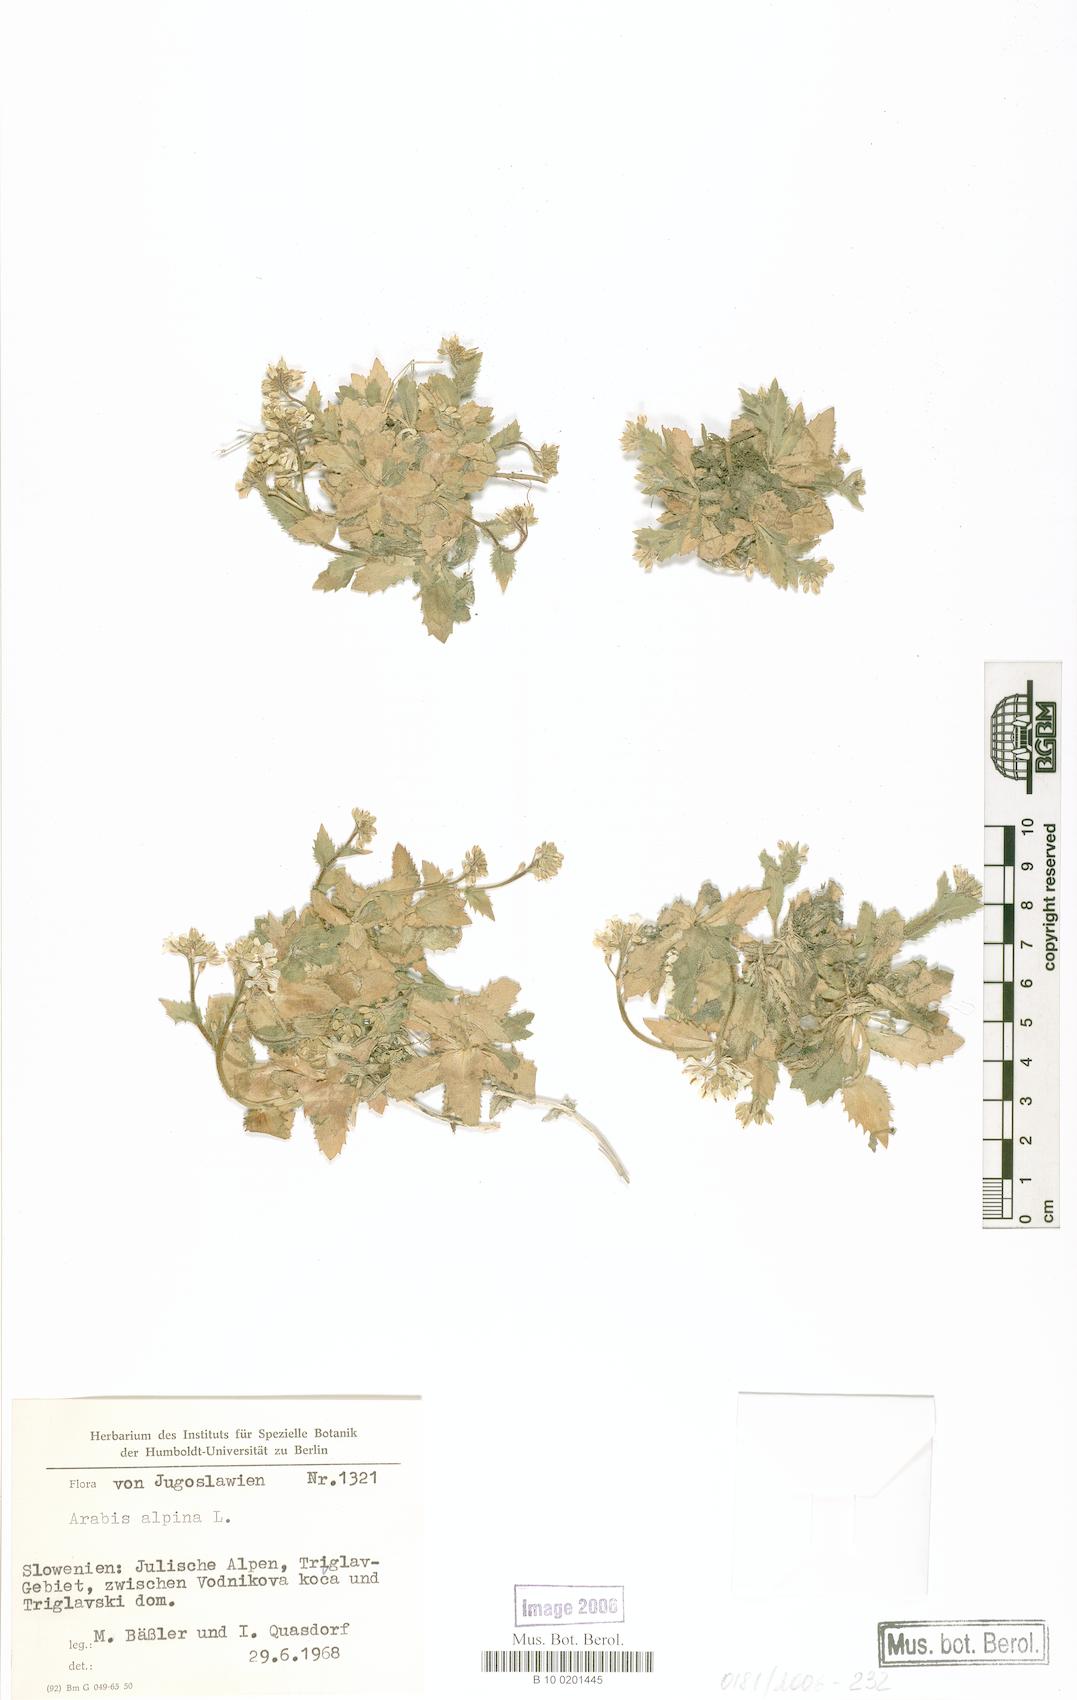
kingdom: Plantae
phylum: Tracheophyta
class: Magnoliopsida
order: Brassicales
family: Brassicaceae
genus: Arabis
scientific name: Arabis alpina
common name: Alpine rock-cress
